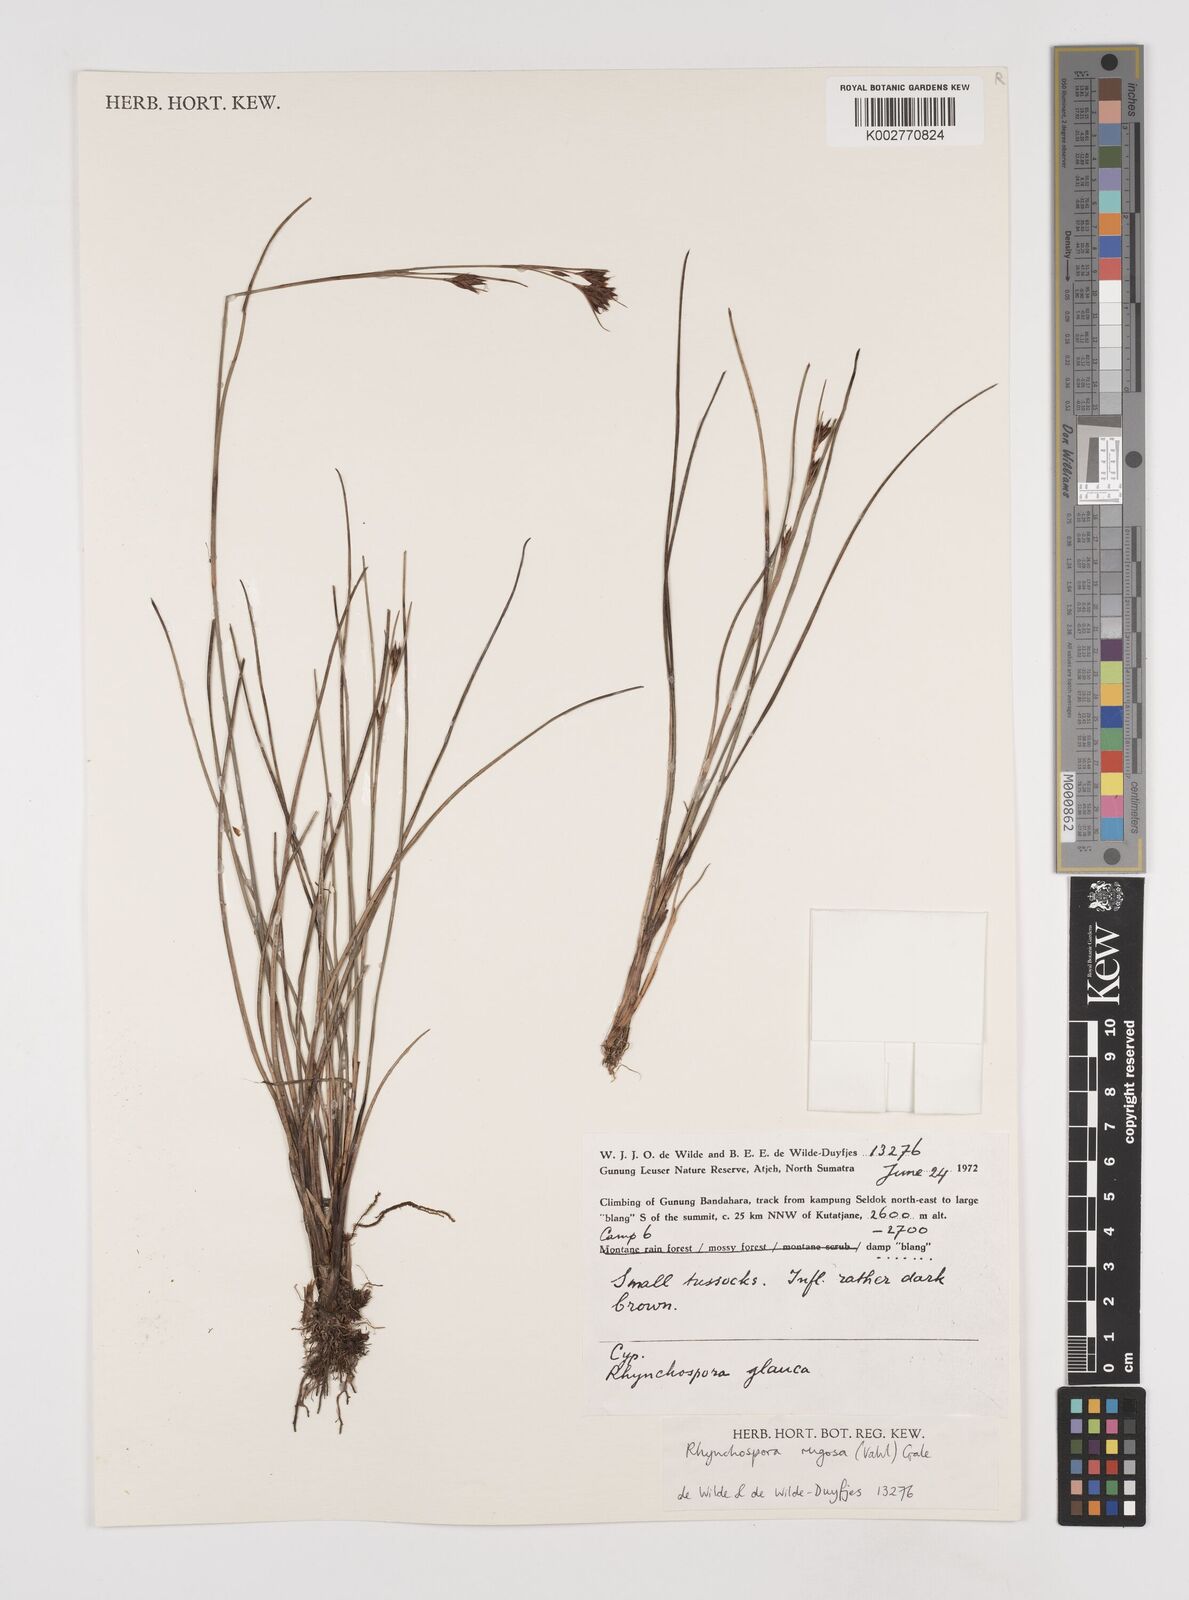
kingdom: Plantae
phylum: Tracheophyta
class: Liliopsida
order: Poales
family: Cyperaceae
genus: Rhynchospora
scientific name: Rhynchospora rugosa
